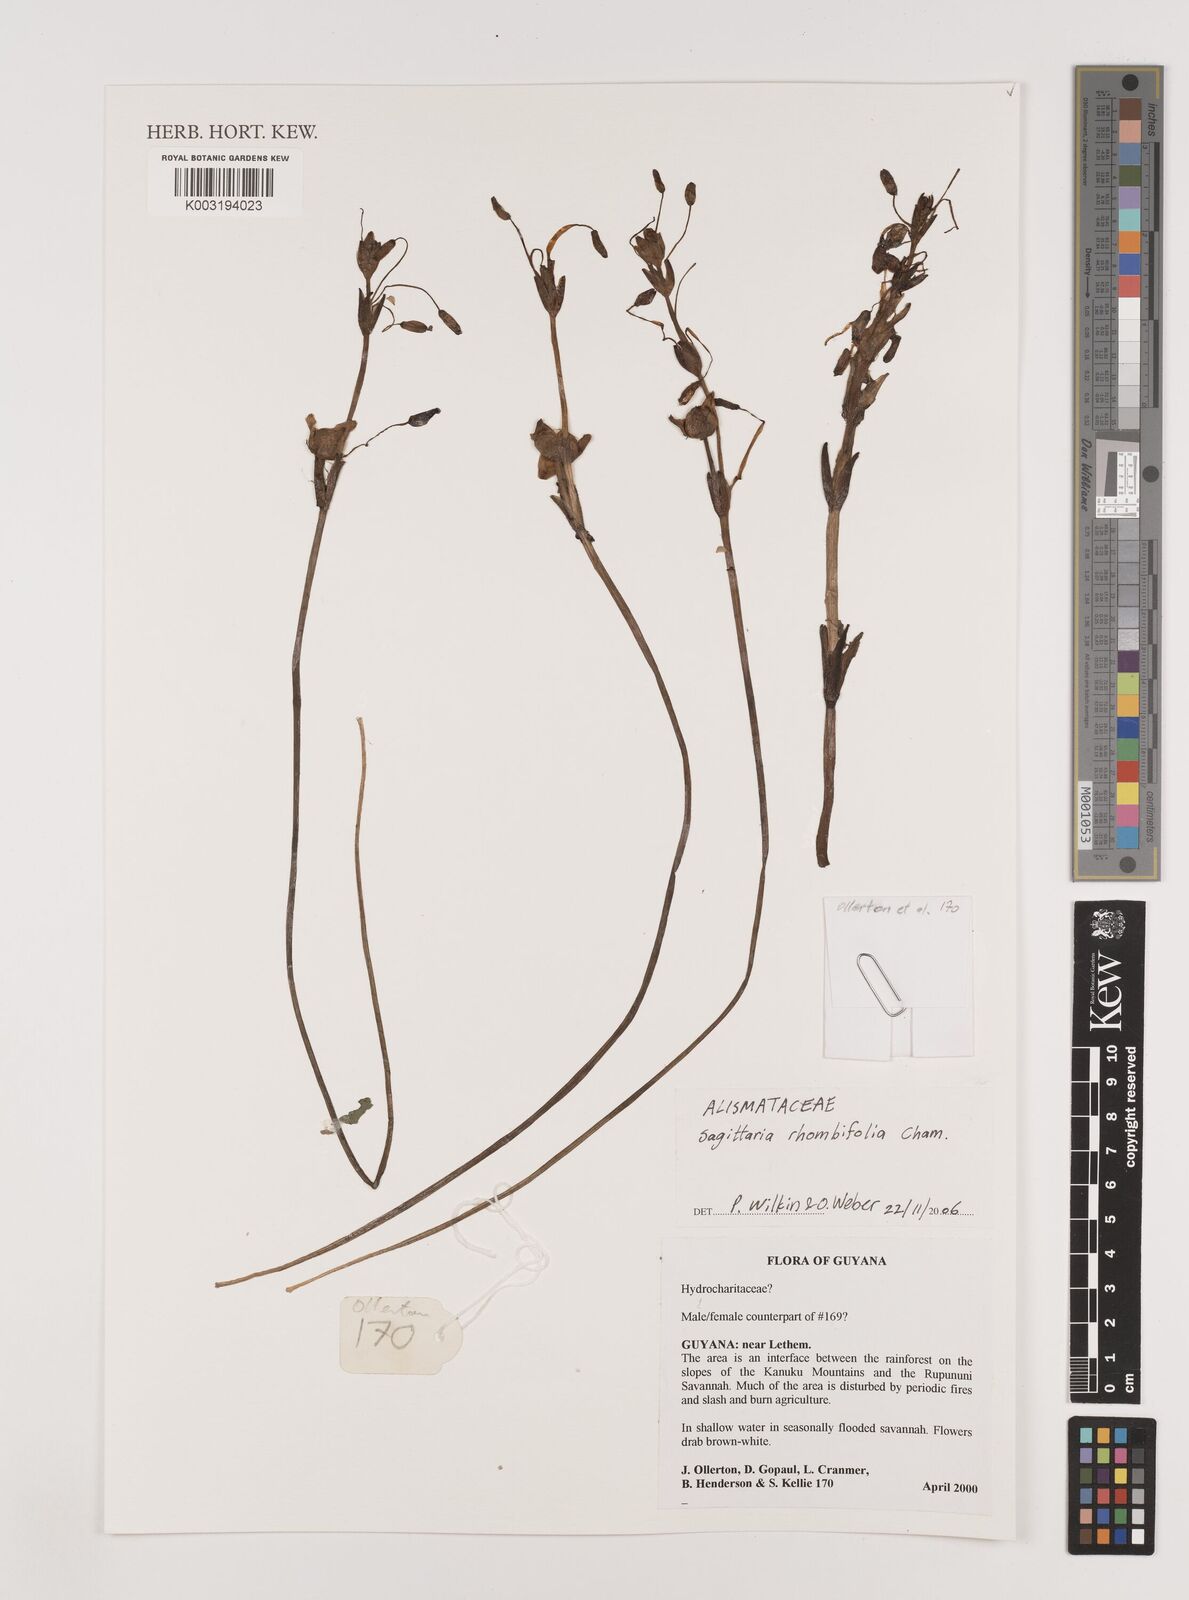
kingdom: Plantae
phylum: Tracheophyta
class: Liliopsida
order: Alismatales
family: Alismataceae
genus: Sagittaria
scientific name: Sagittaria rhombifolia
